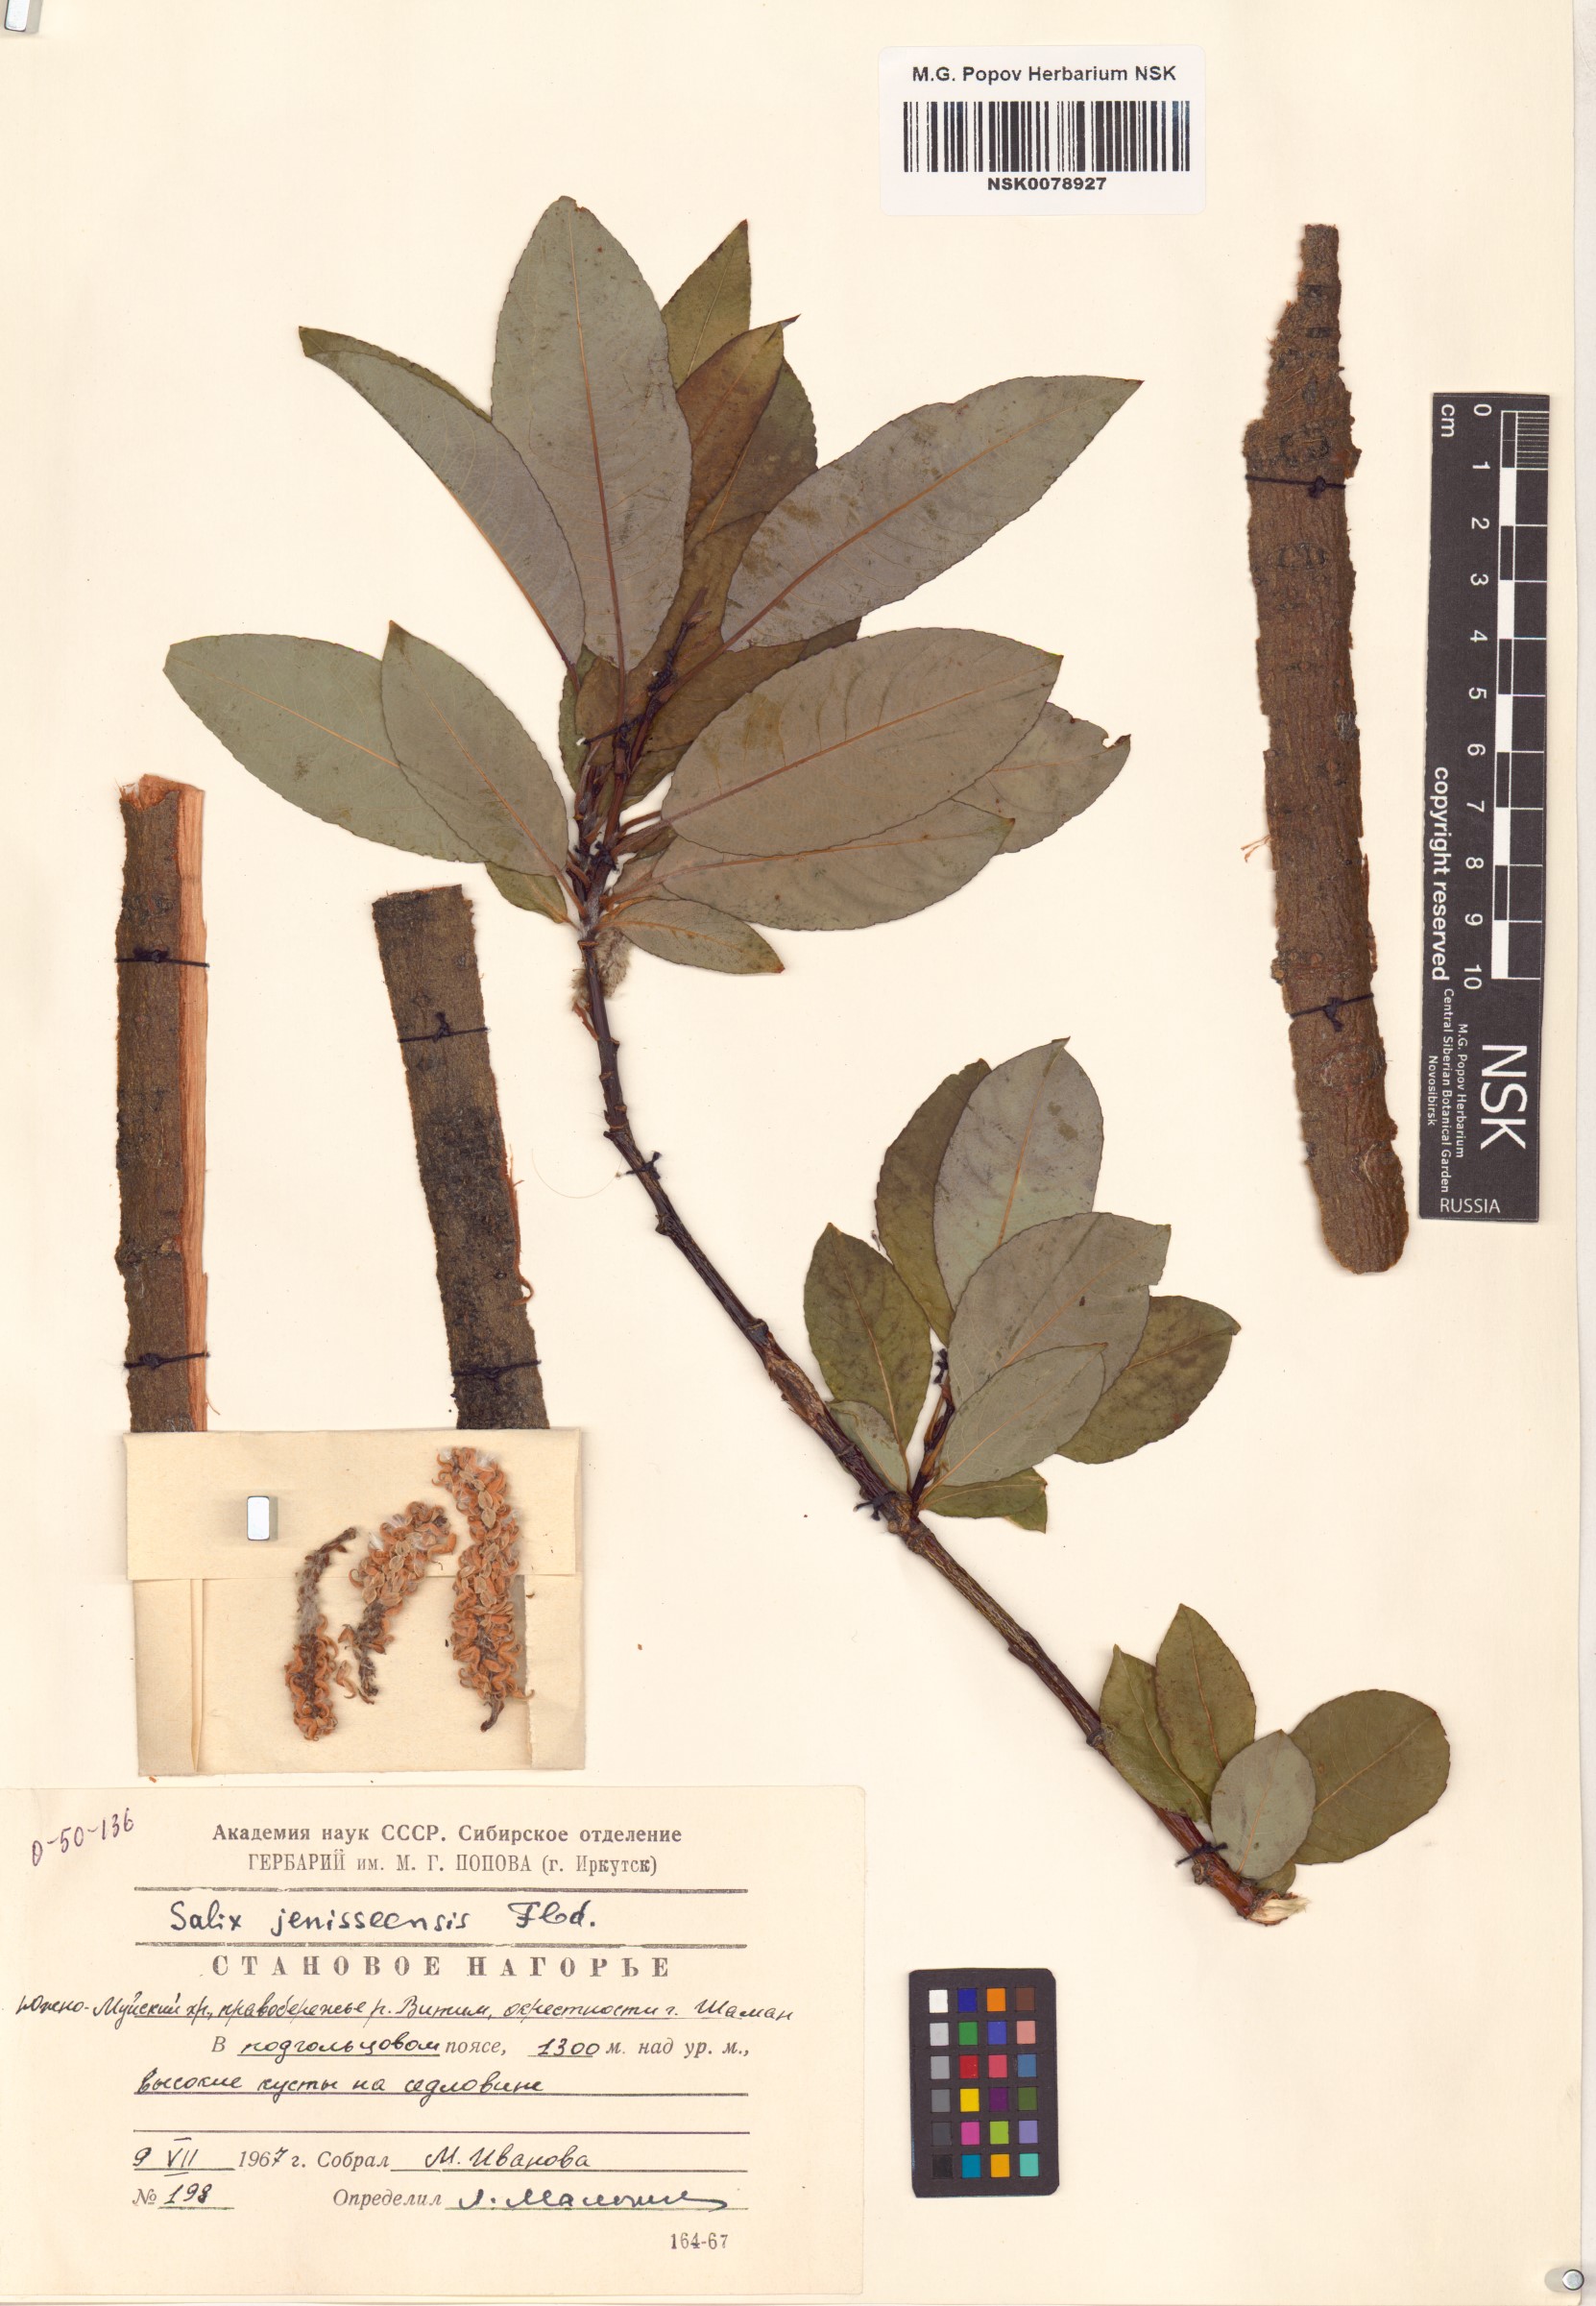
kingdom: Plantae
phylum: Tracheophyta
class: Magnoliopsida
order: Malpighiales
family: Salicaceae
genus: Salix
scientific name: Salix jenisseensis
